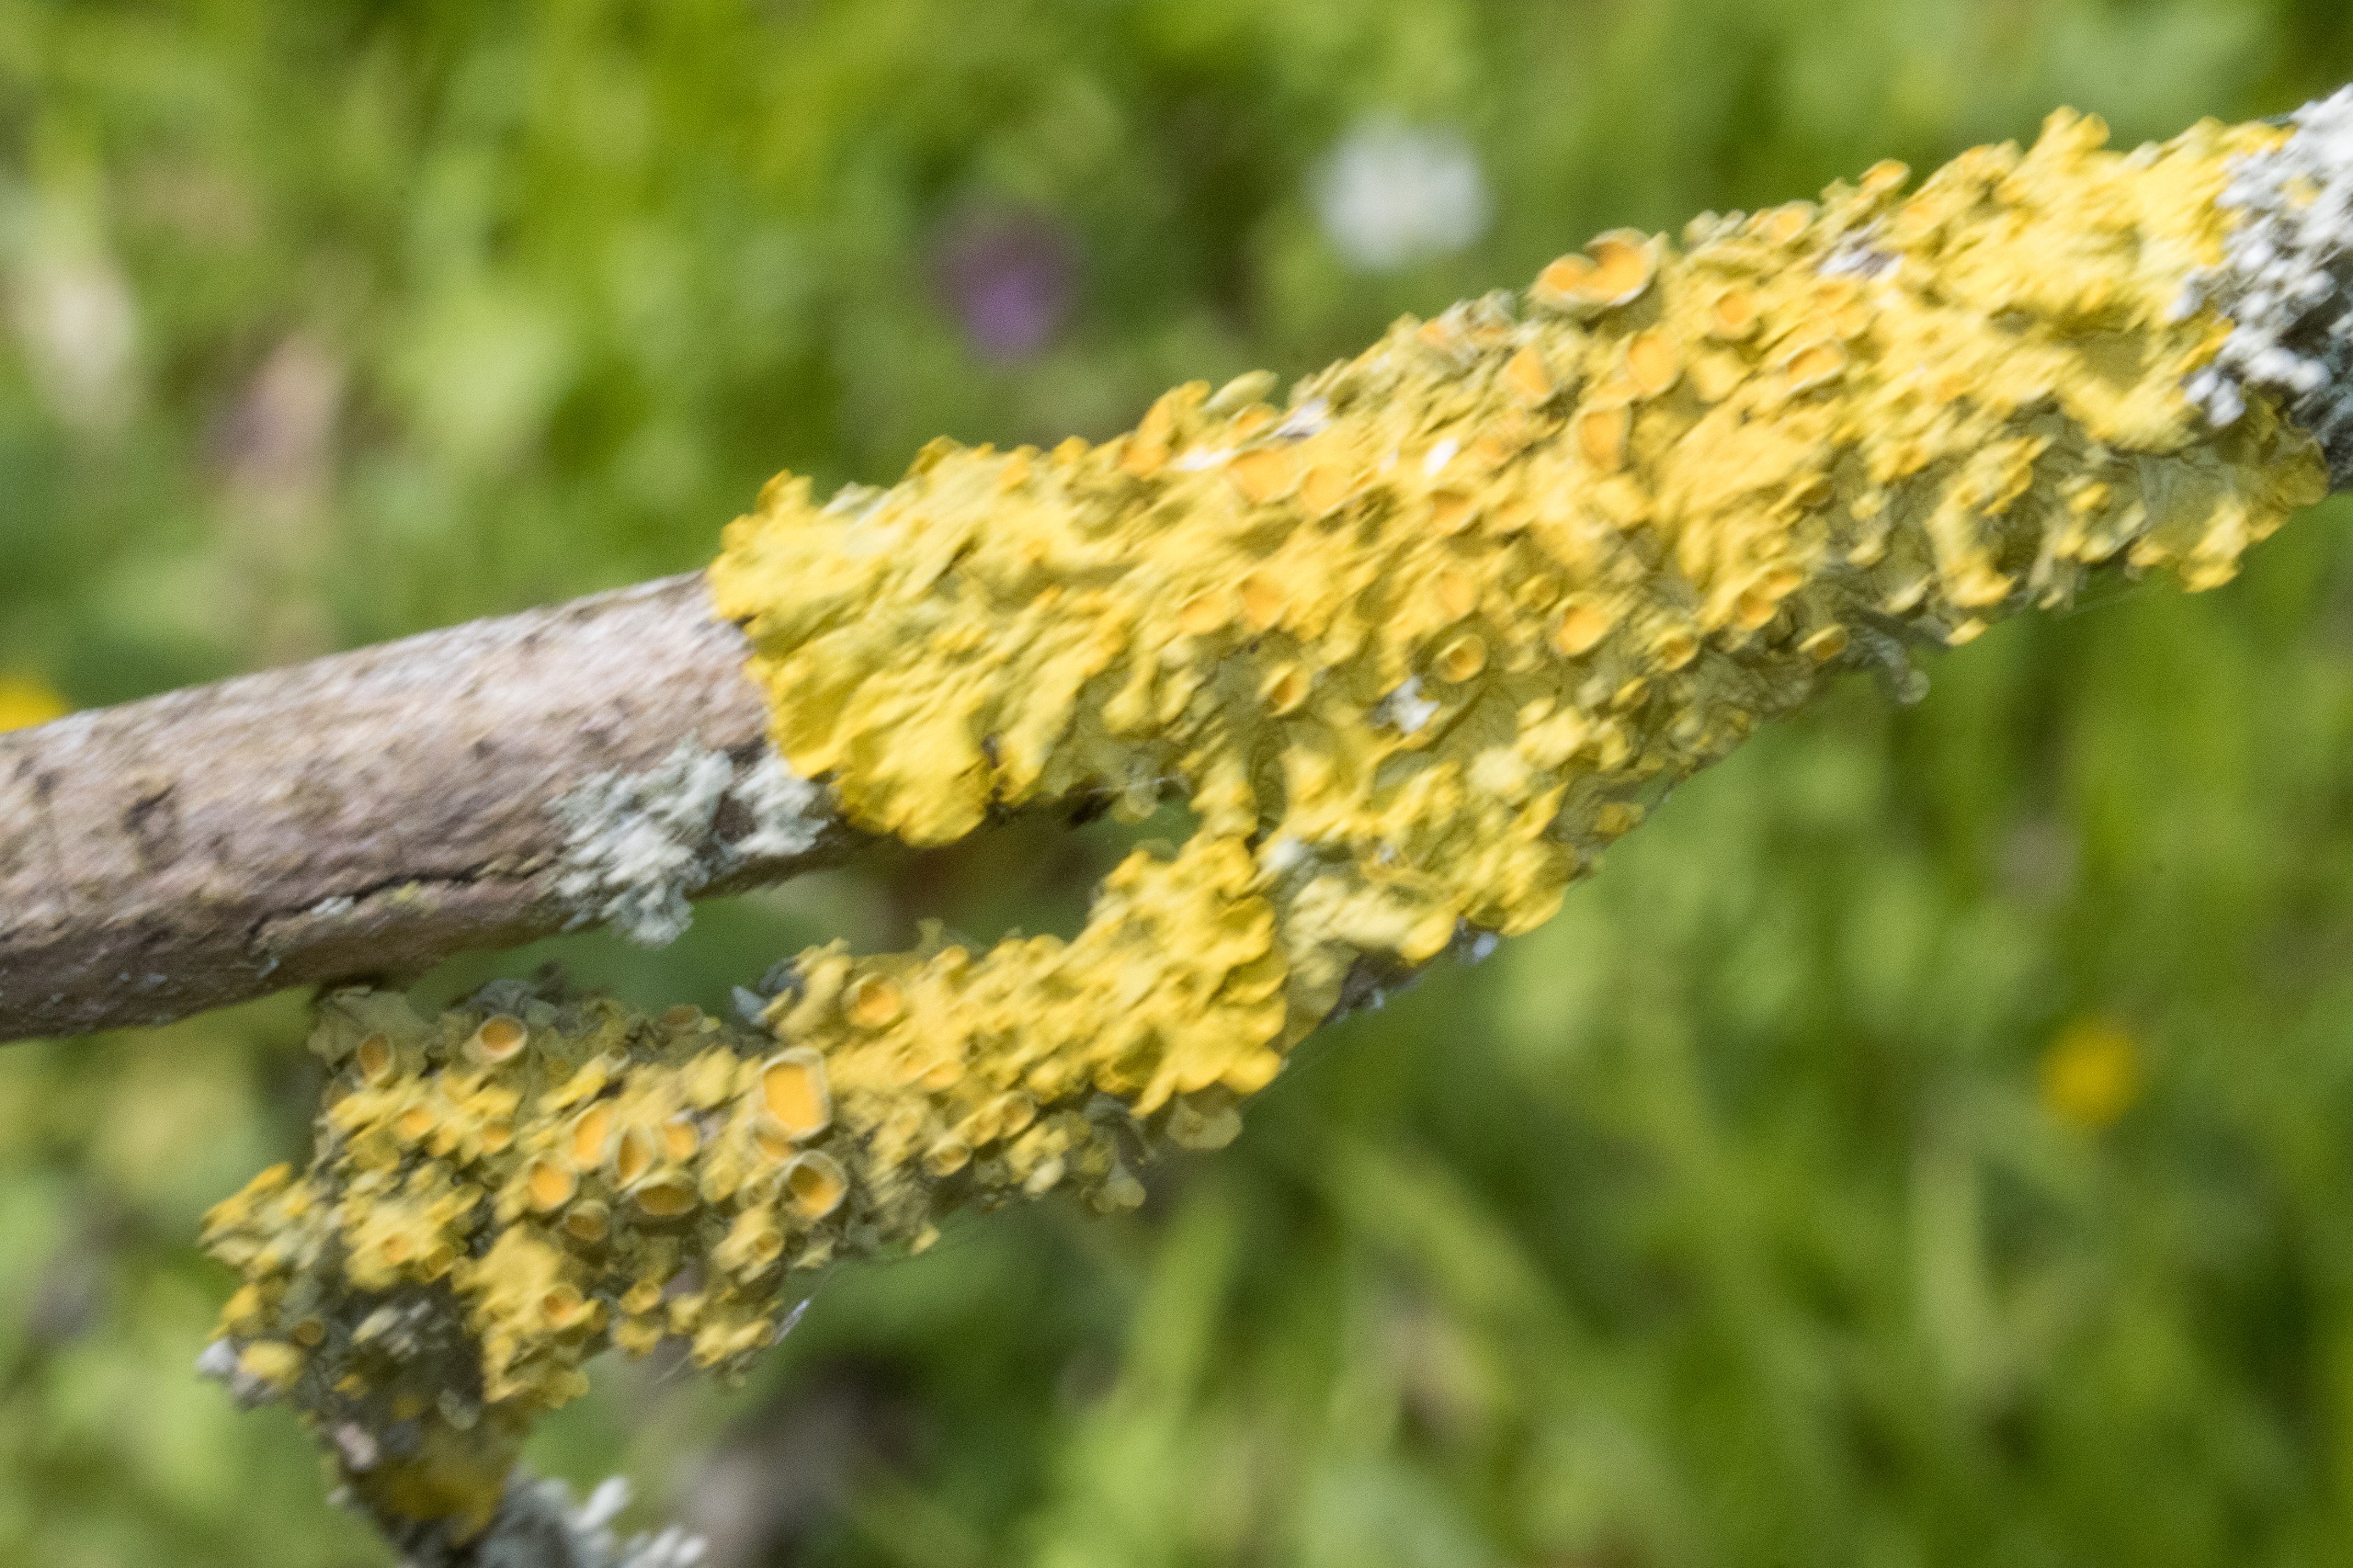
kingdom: Fungi
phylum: Ascomycota
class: Lecanoromycetes
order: Teloschistales
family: Teloschistaceae
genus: Xanthoria
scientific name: Xanthoria parietina
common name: Almindelig væggelav
